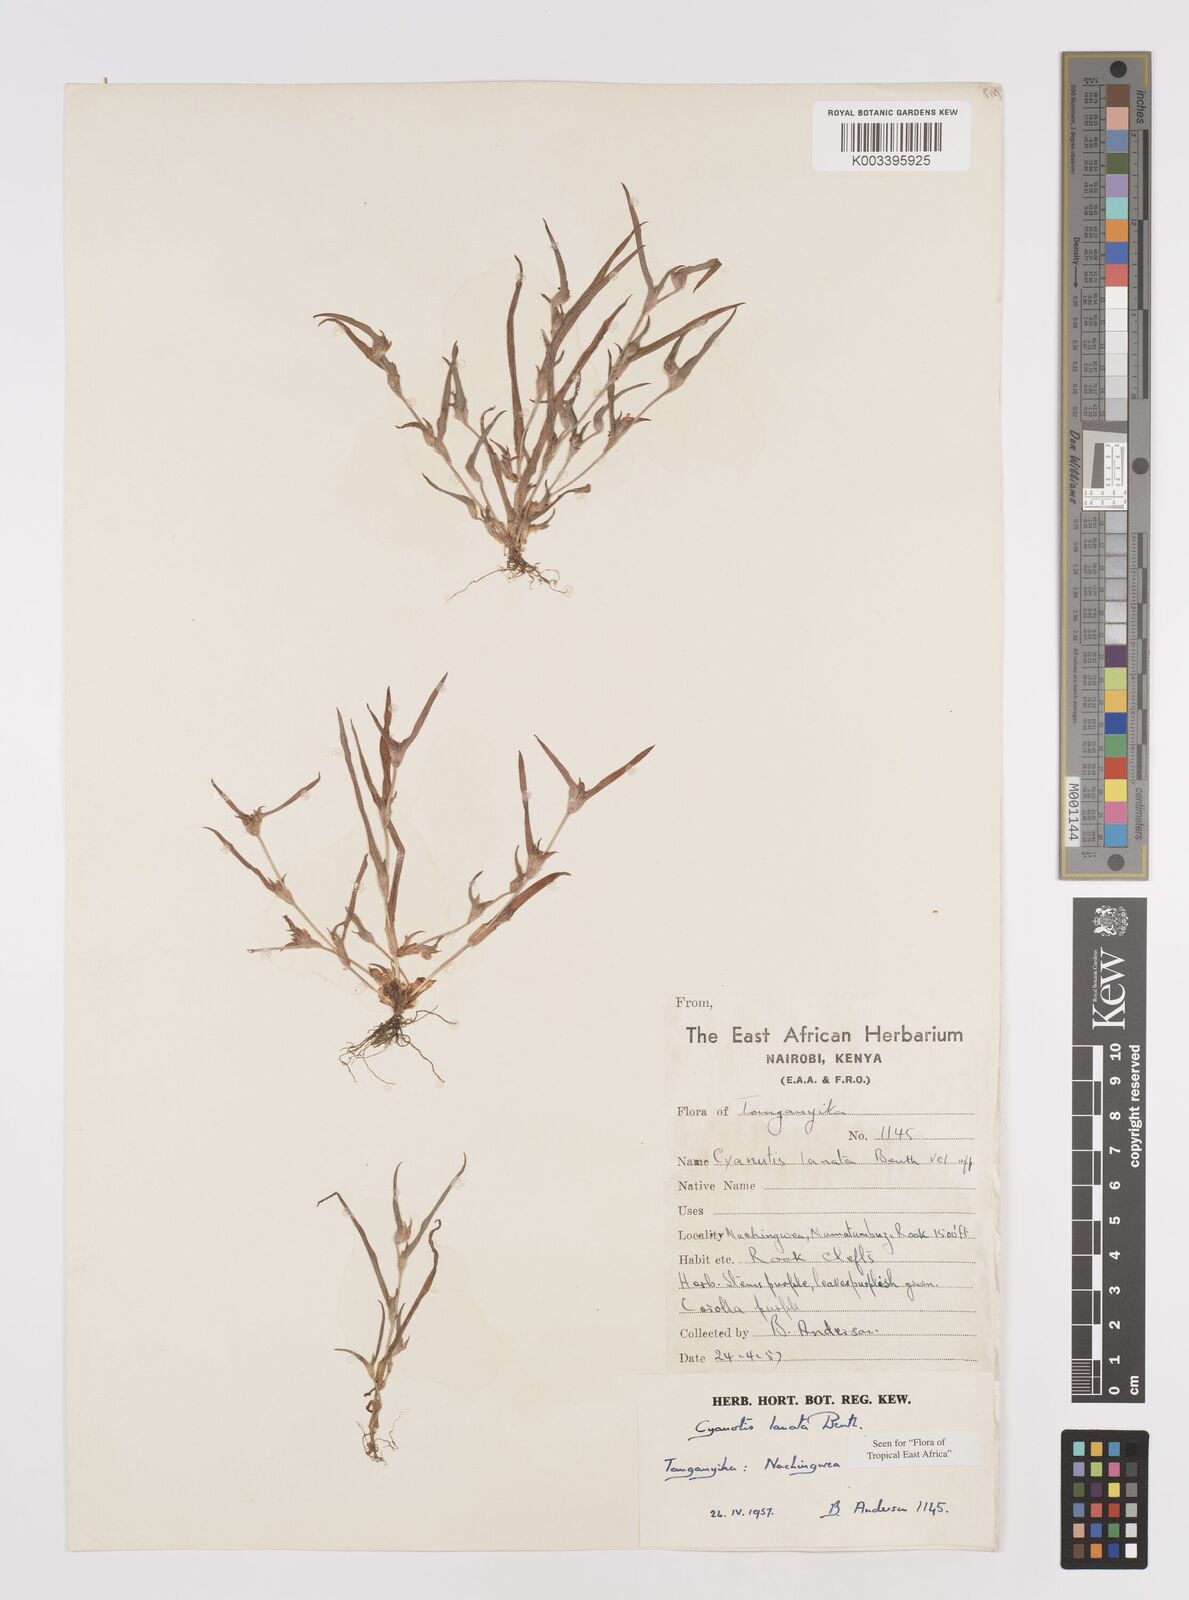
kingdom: Plantae
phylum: Tracheophyta
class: Liliopsida
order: Commelinales
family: Commelinaceae
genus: Cyanotis
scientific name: Cyanotis lanata
